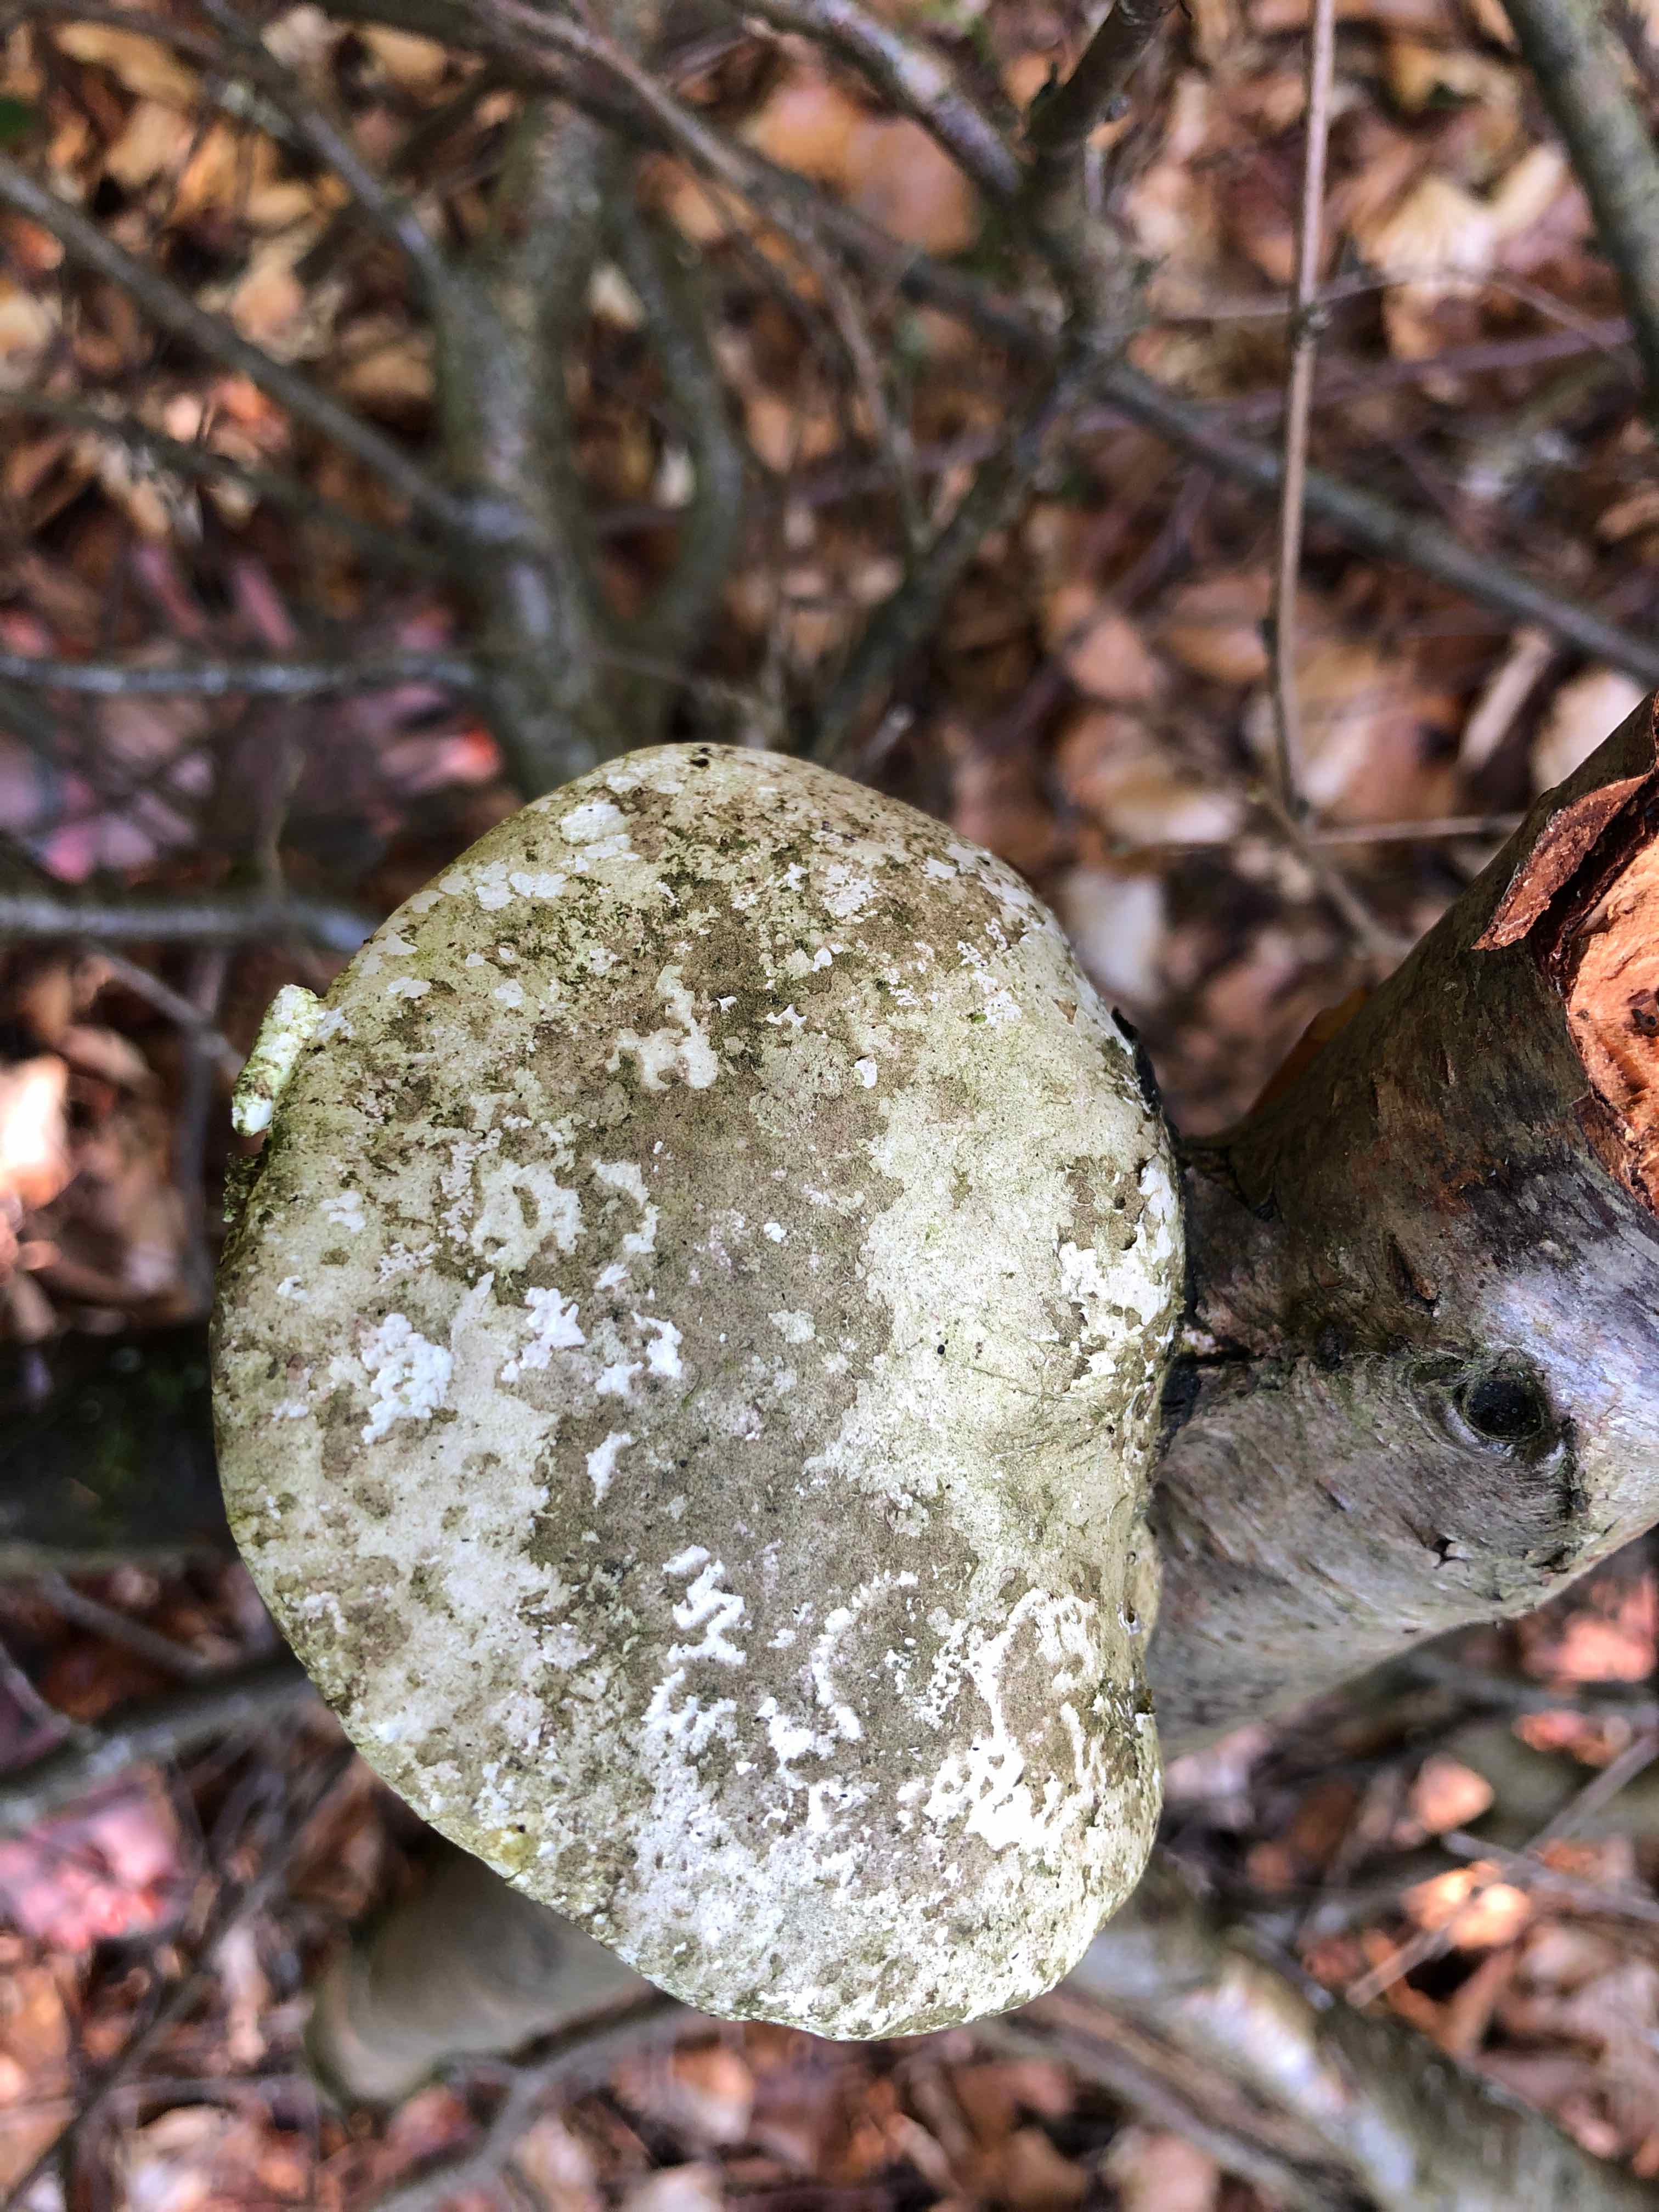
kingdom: Fungi
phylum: Basidiomycota
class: Agaricomycetes
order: Polyporales
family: Fomitopsidaceae
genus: Fomitopsis
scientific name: Fomitopsis betulina
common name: birkeporesvamp
